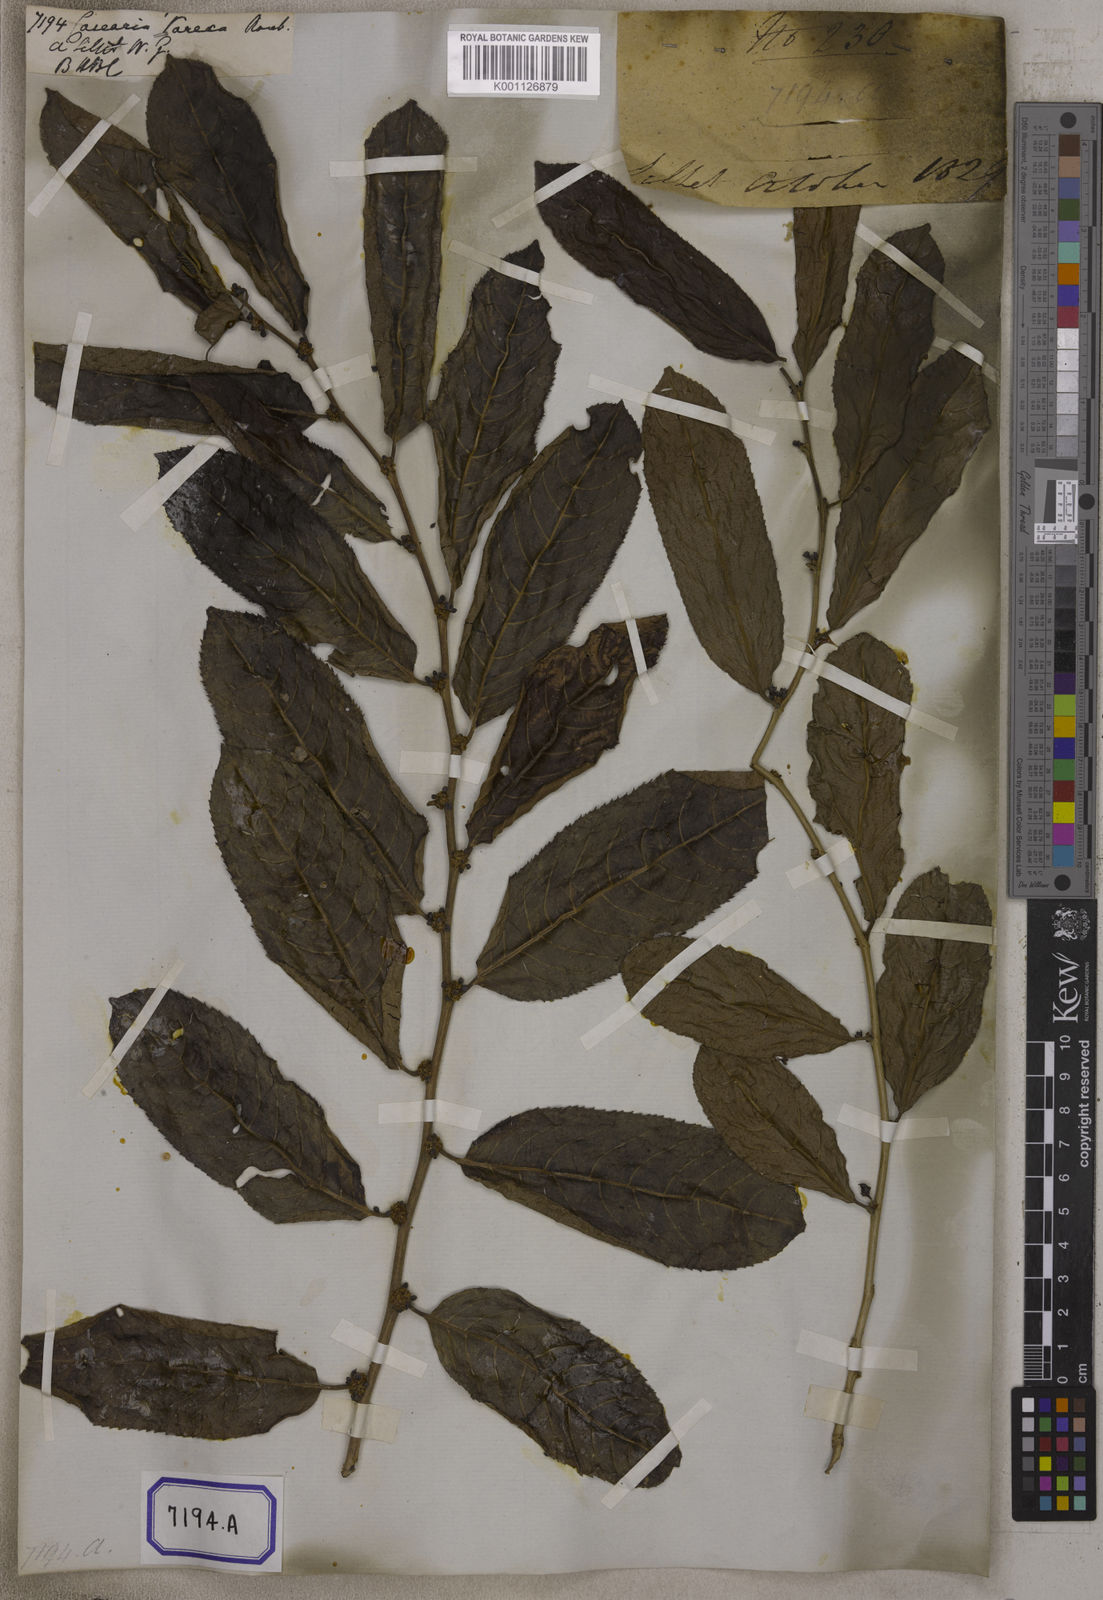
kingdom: Plantae
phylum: Tracheophyta
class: Magnoliopsida
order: Malpighiales
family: Salicaceae
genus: Casearia
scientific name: Casearia vareca
